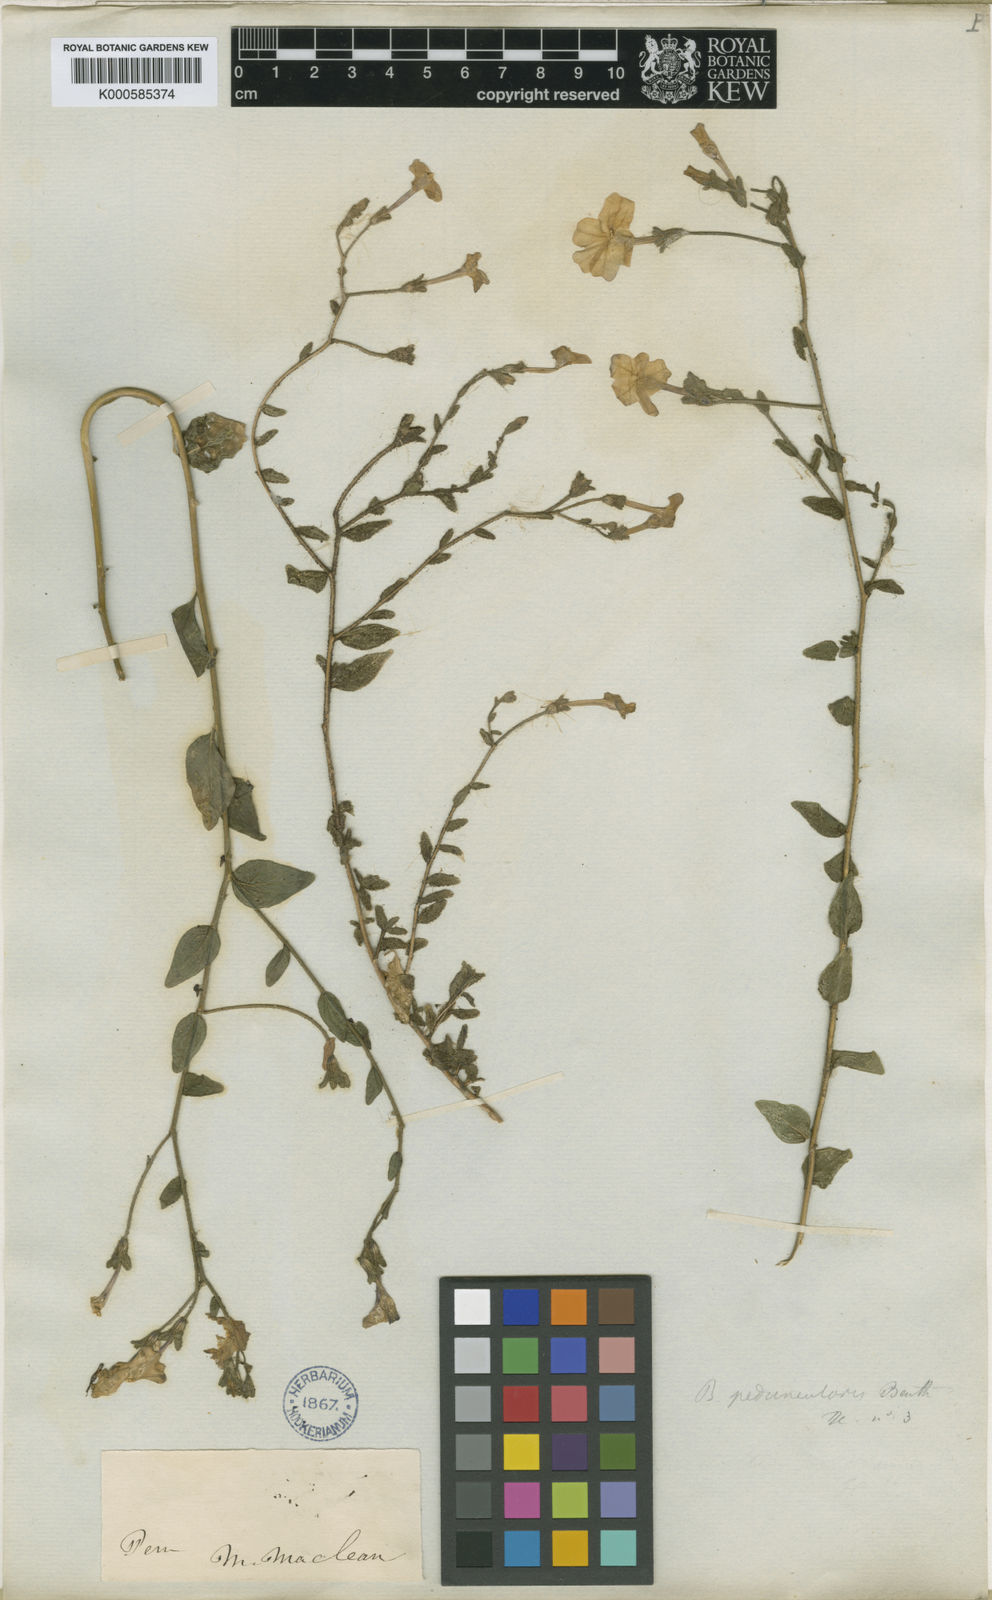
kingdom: Plantae
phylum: Tracheophyta
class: Magnoliopsida
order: Solanales
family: Solanaceae
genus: Browallia
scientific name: Browallia americana
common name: Jamaican forget-me-not
